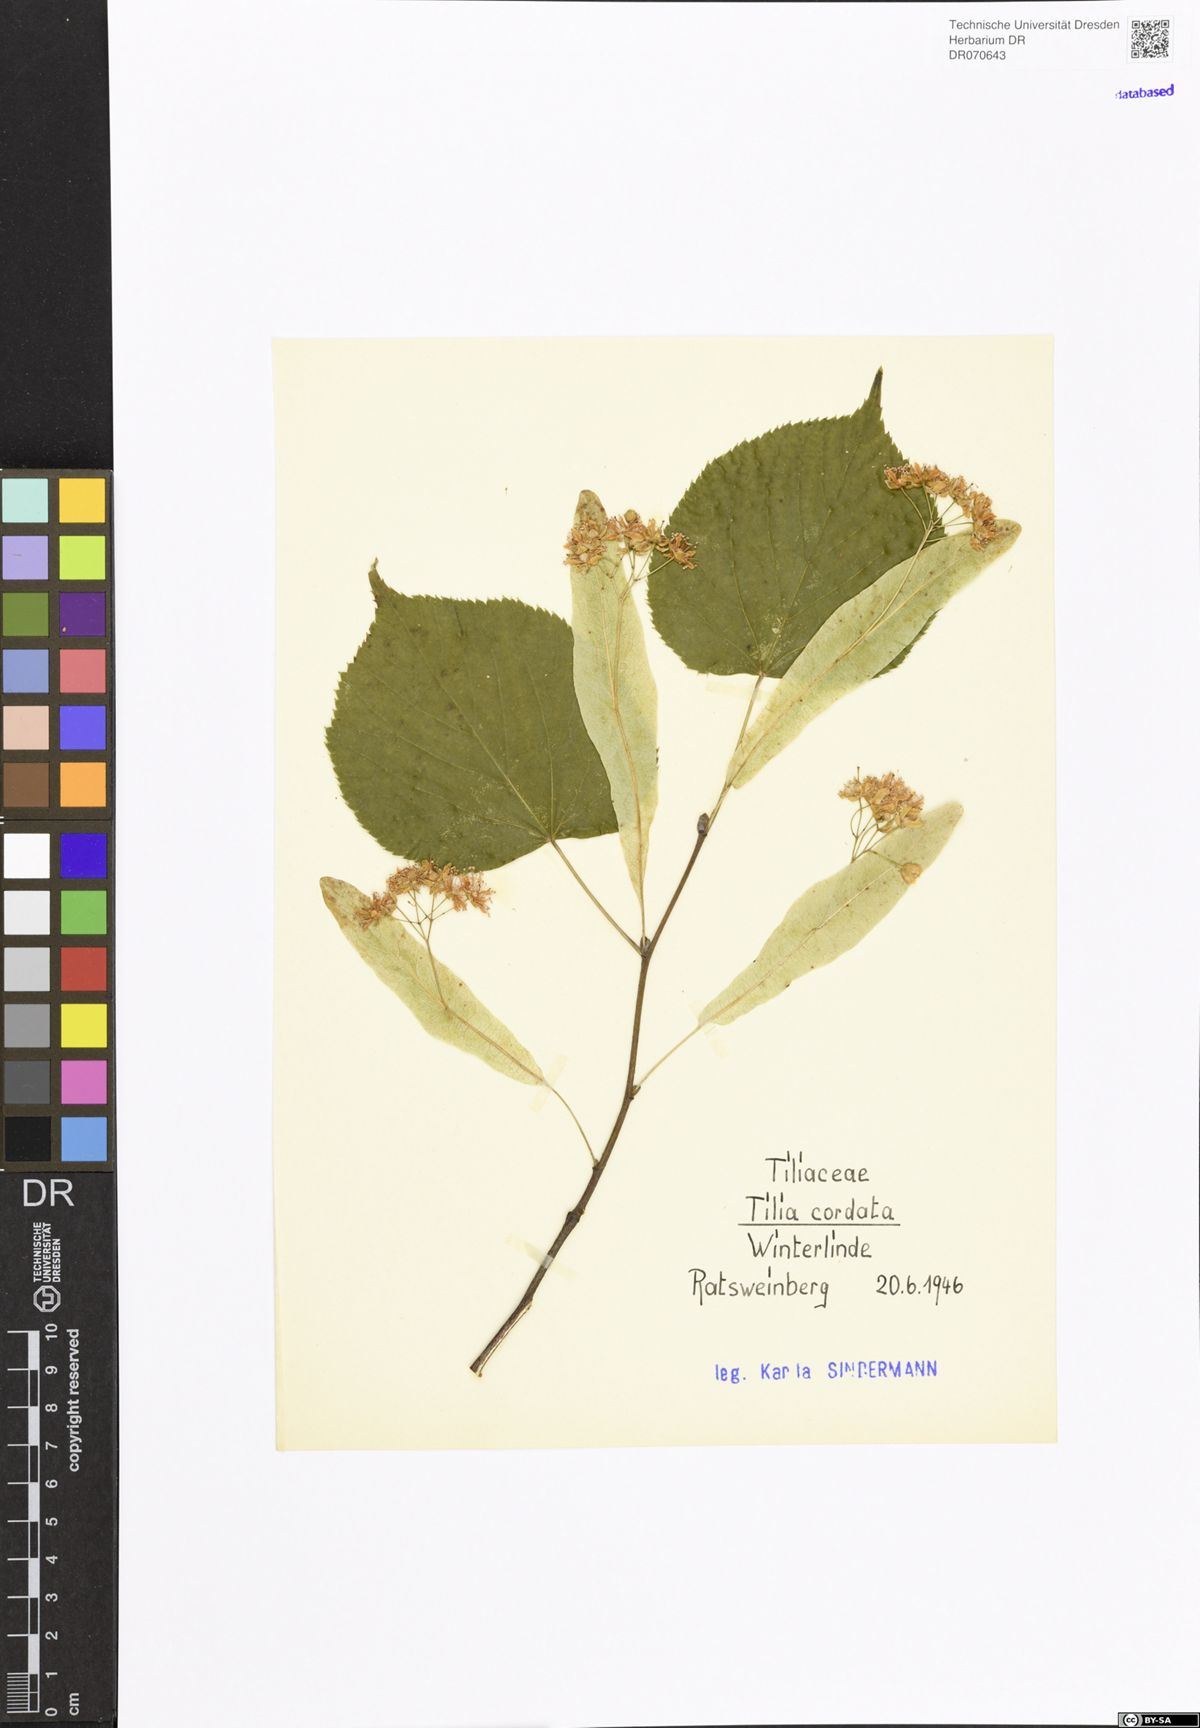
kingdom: Plantae
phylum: Tracheophyta
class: Magnoliopsida
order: Malvales
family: Malvaceae
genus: Tilia
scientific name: Tilia cordata
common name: Small-leaved lime
